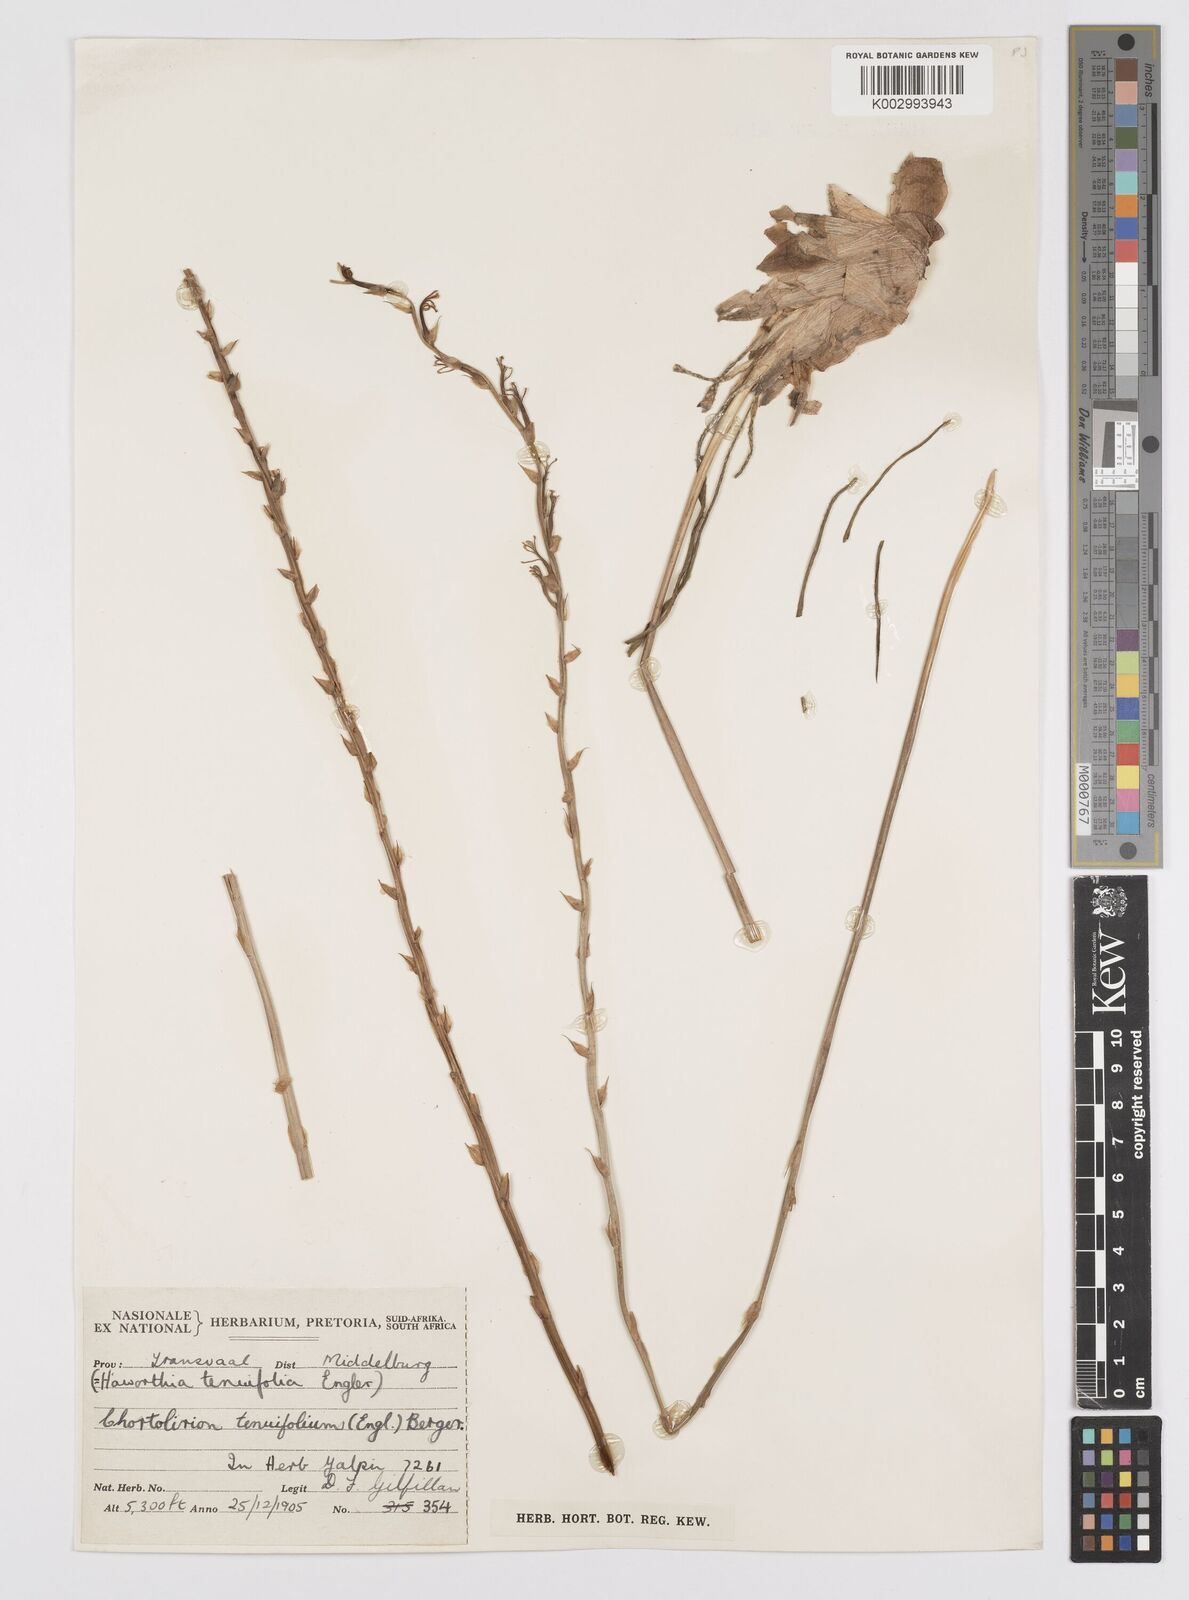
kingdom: Plantae
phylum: Tracheophyta
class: Liliopsida
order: Asparagales
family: Asphodelaceae
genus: Aloe
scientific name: Aloe welwitschii
